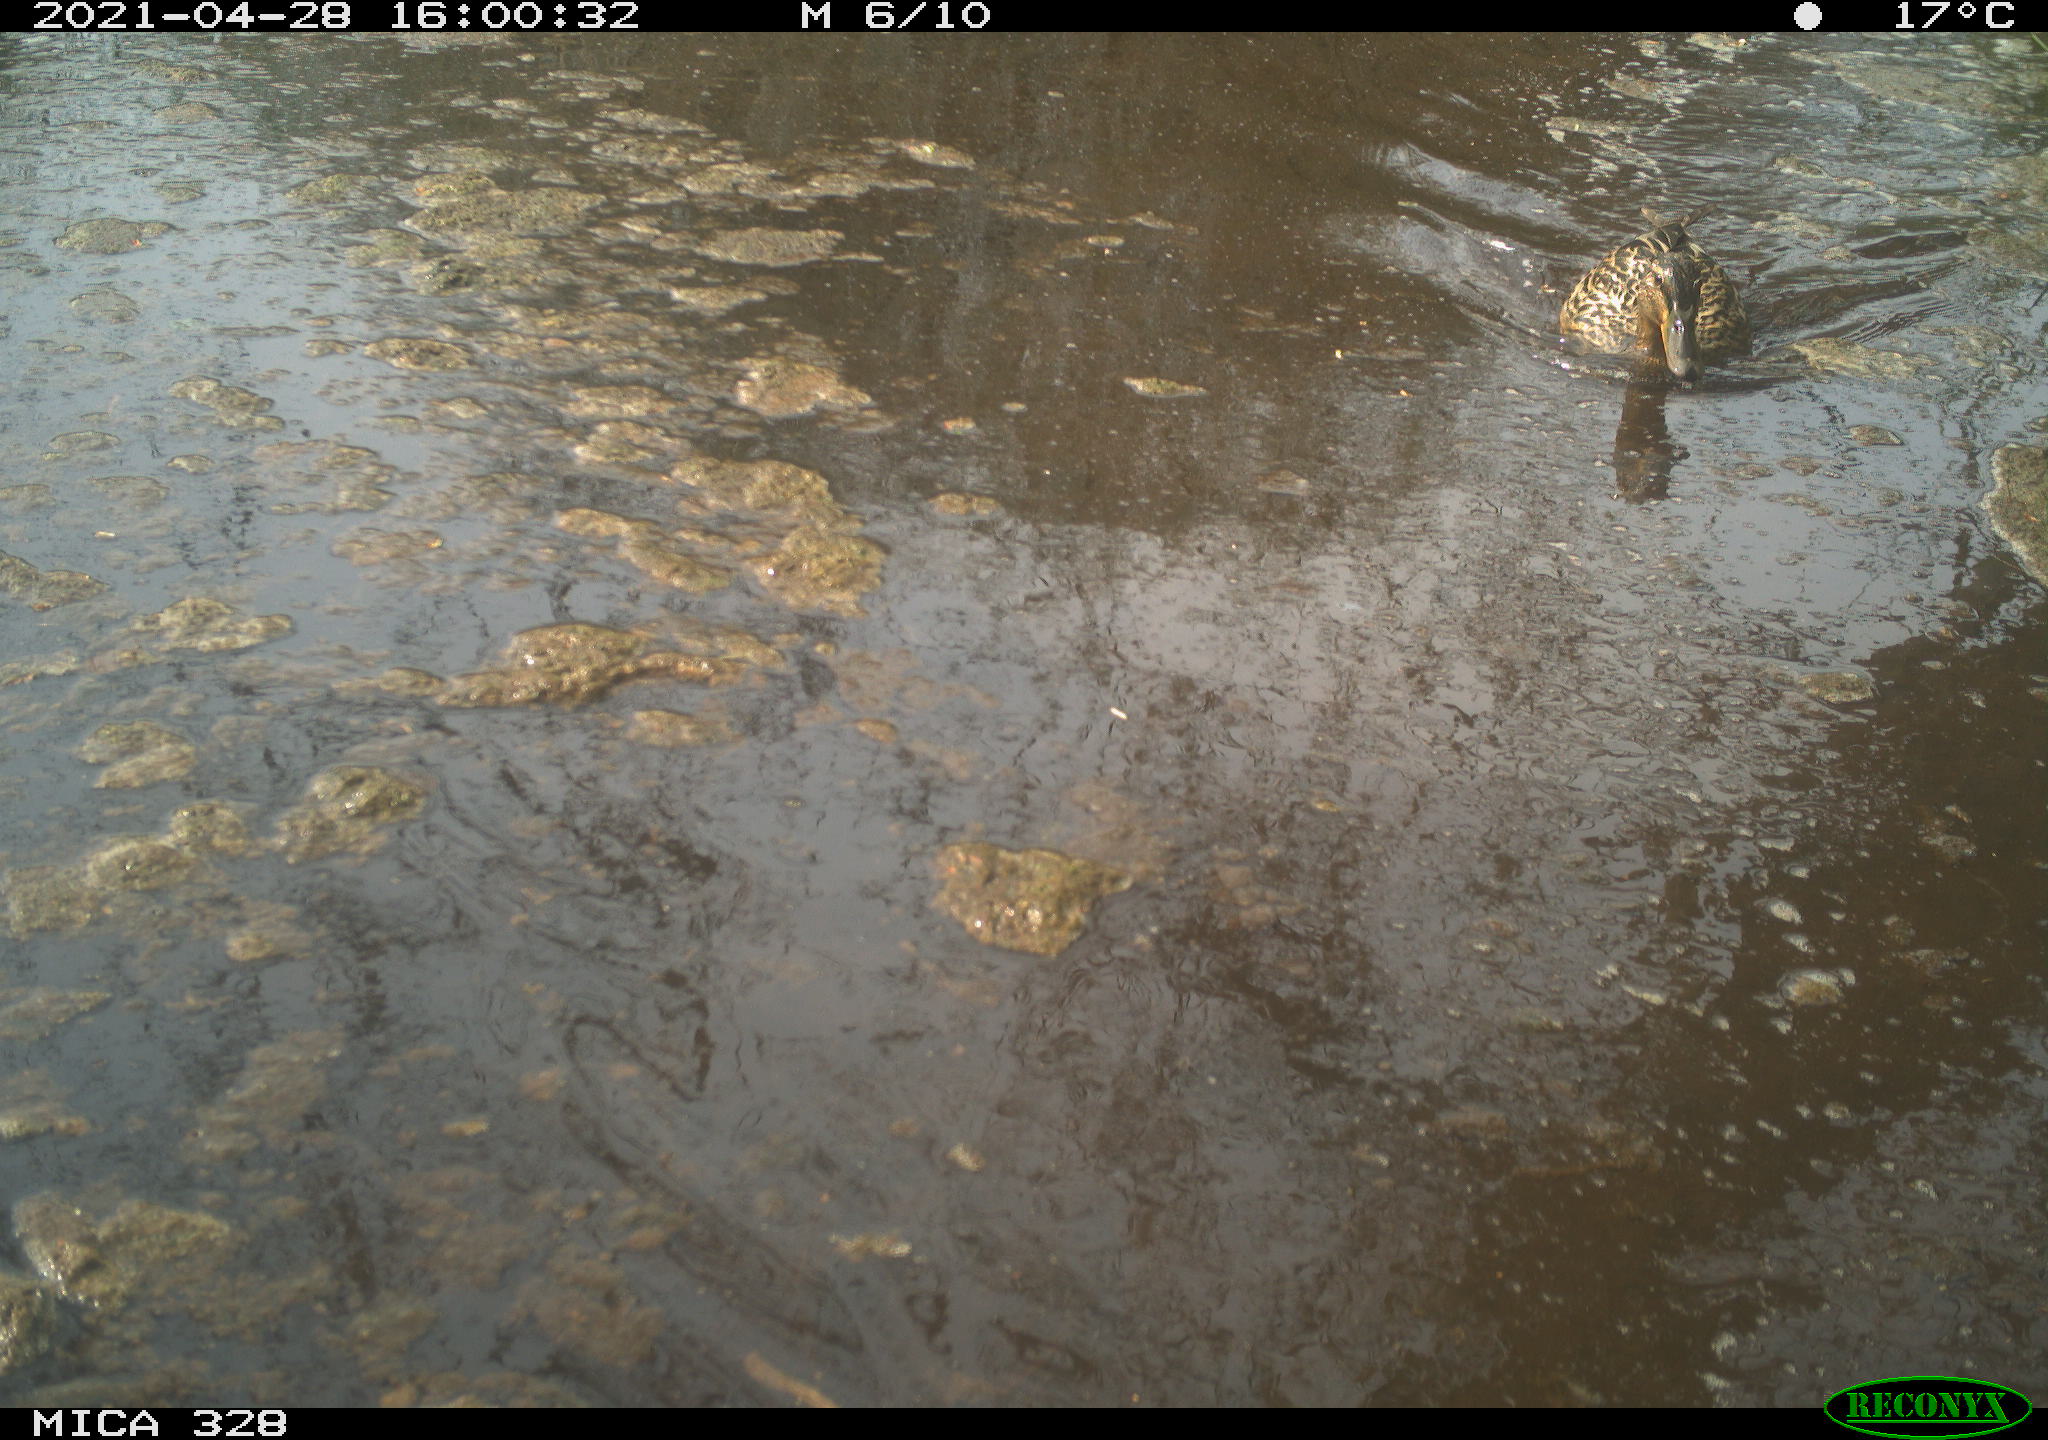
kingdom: Animalia
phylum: Chordata
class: Aves
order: Anseriformes
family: Anatidae
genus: Anas
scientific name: Anas platyrhynchos
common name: Mallard
